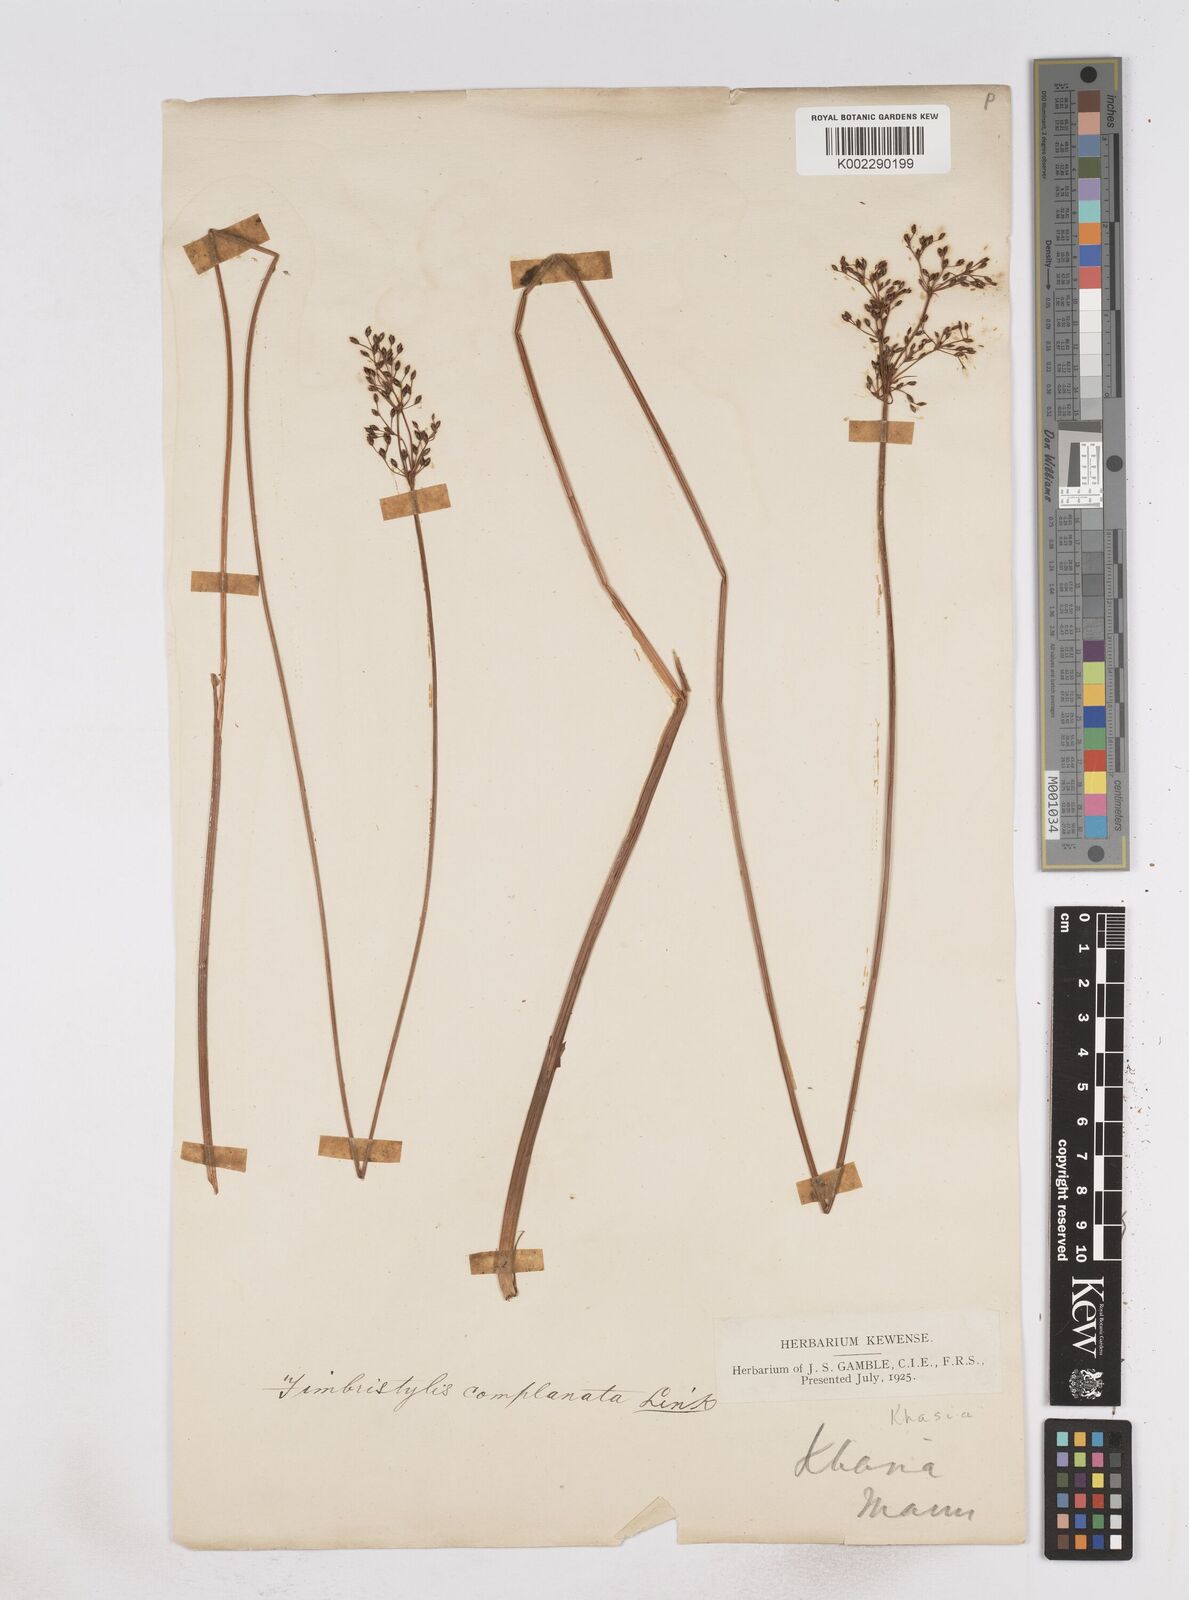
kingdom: Plantae
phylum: Tracheophyta
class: Liliopsida
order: Poales
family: Cyperaceae
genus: Fimbristylis
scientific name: Fimbristylis
